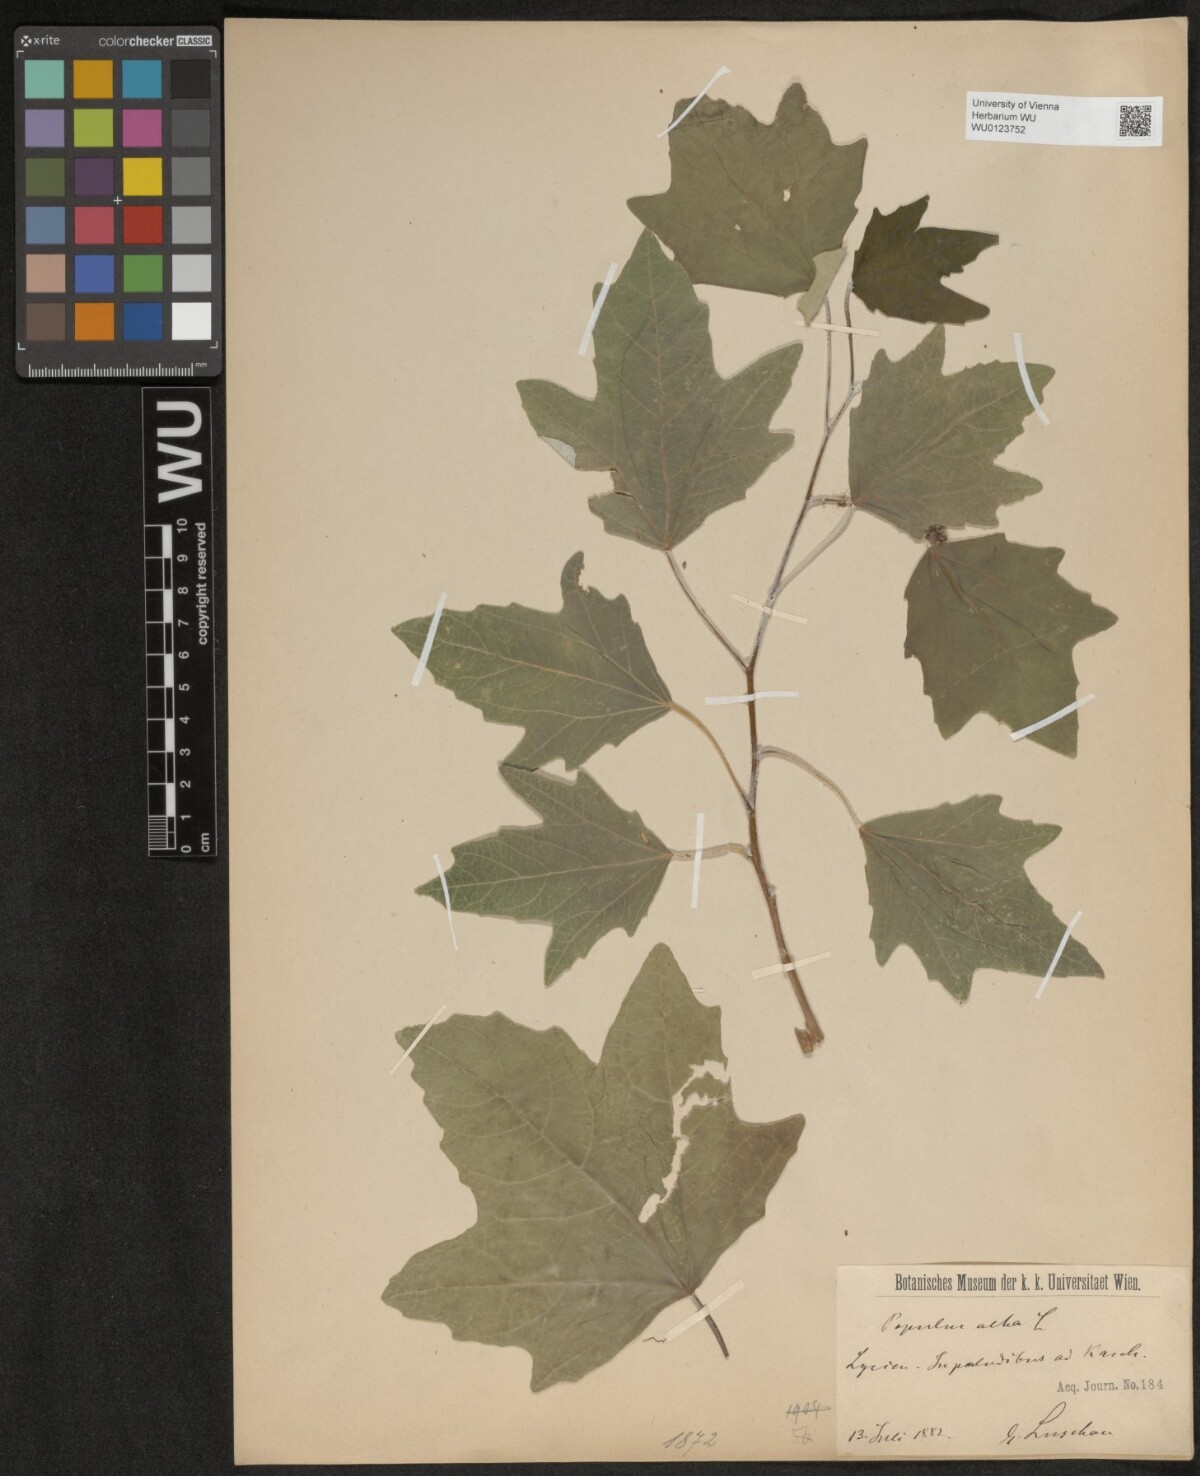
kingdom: Plantae
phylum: Tracheophyta
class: Magnoliopsida
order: Malpighiales
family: Salicaceae
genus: Populus
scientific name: Populus alba
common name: White poplar
